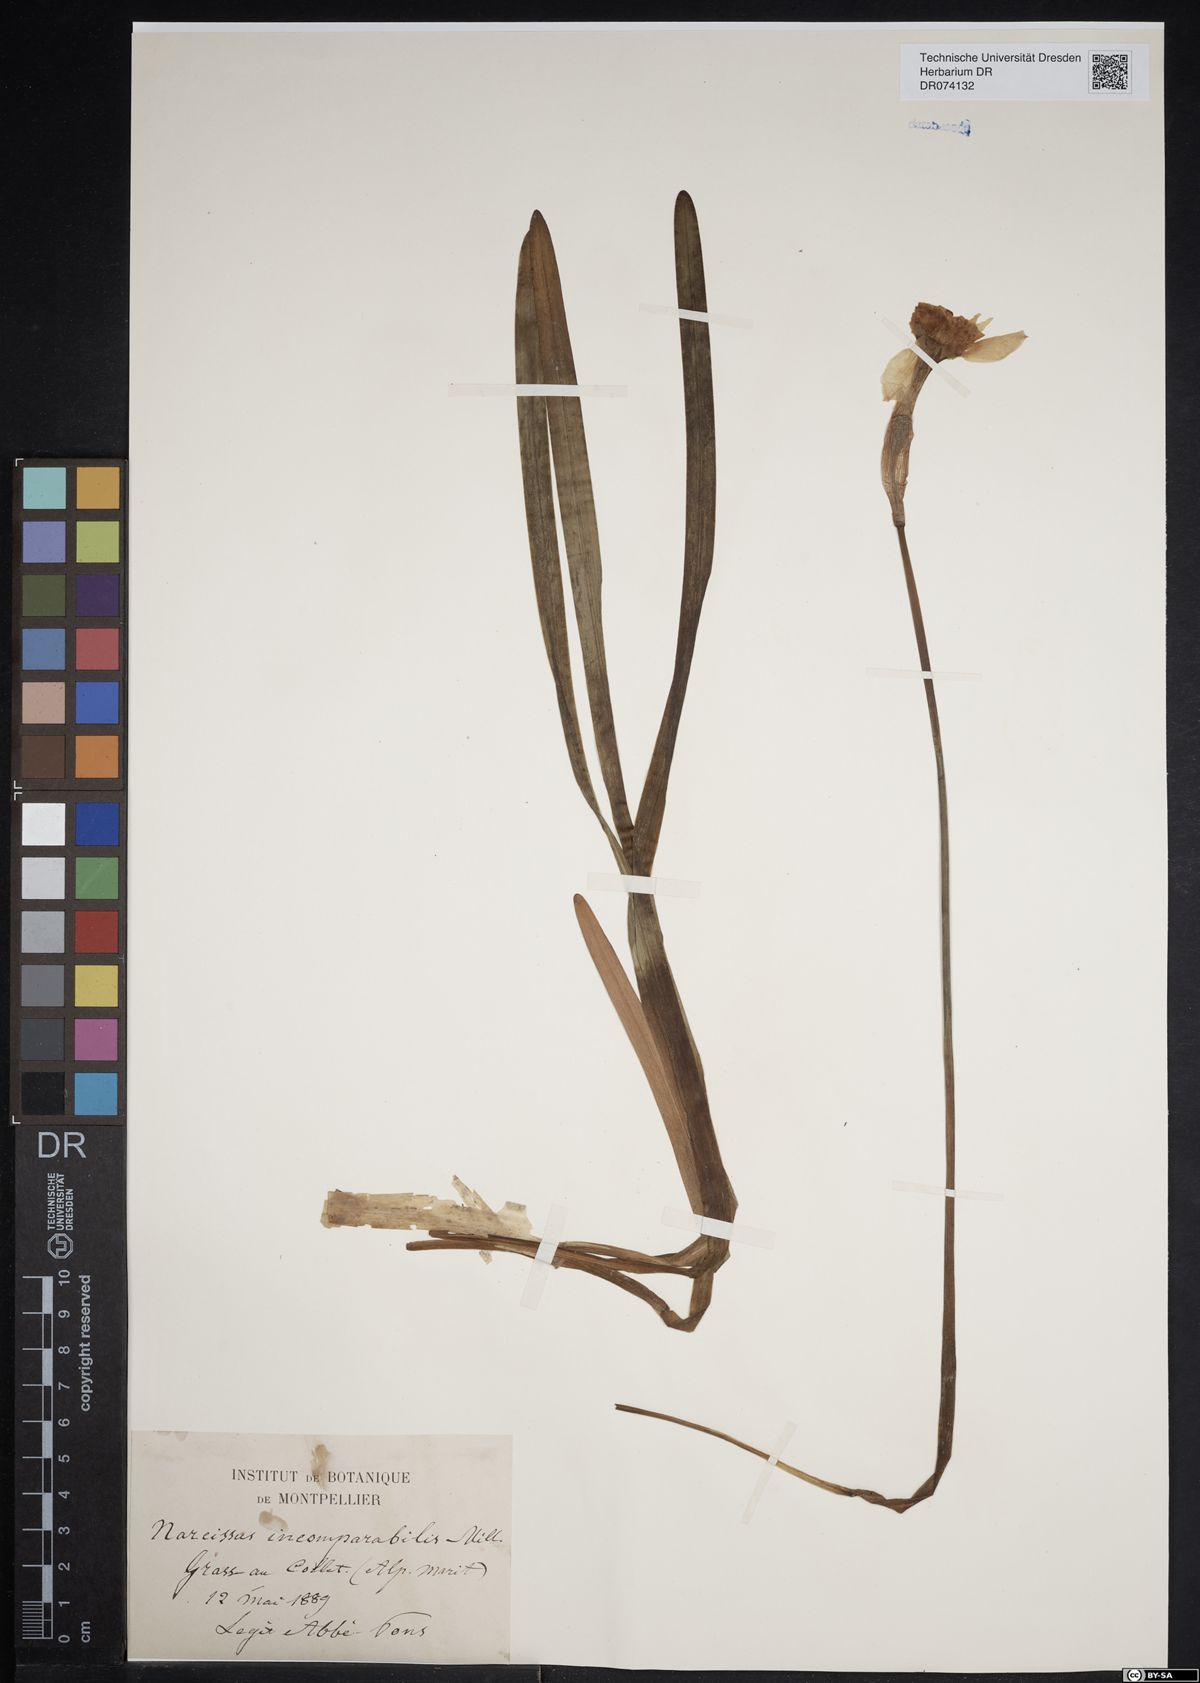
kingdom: Plantae
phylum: Tracheophyta
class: Liliopsida
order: Asparagales
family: Amaryllidaceae
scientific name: Amaryllidaceae
